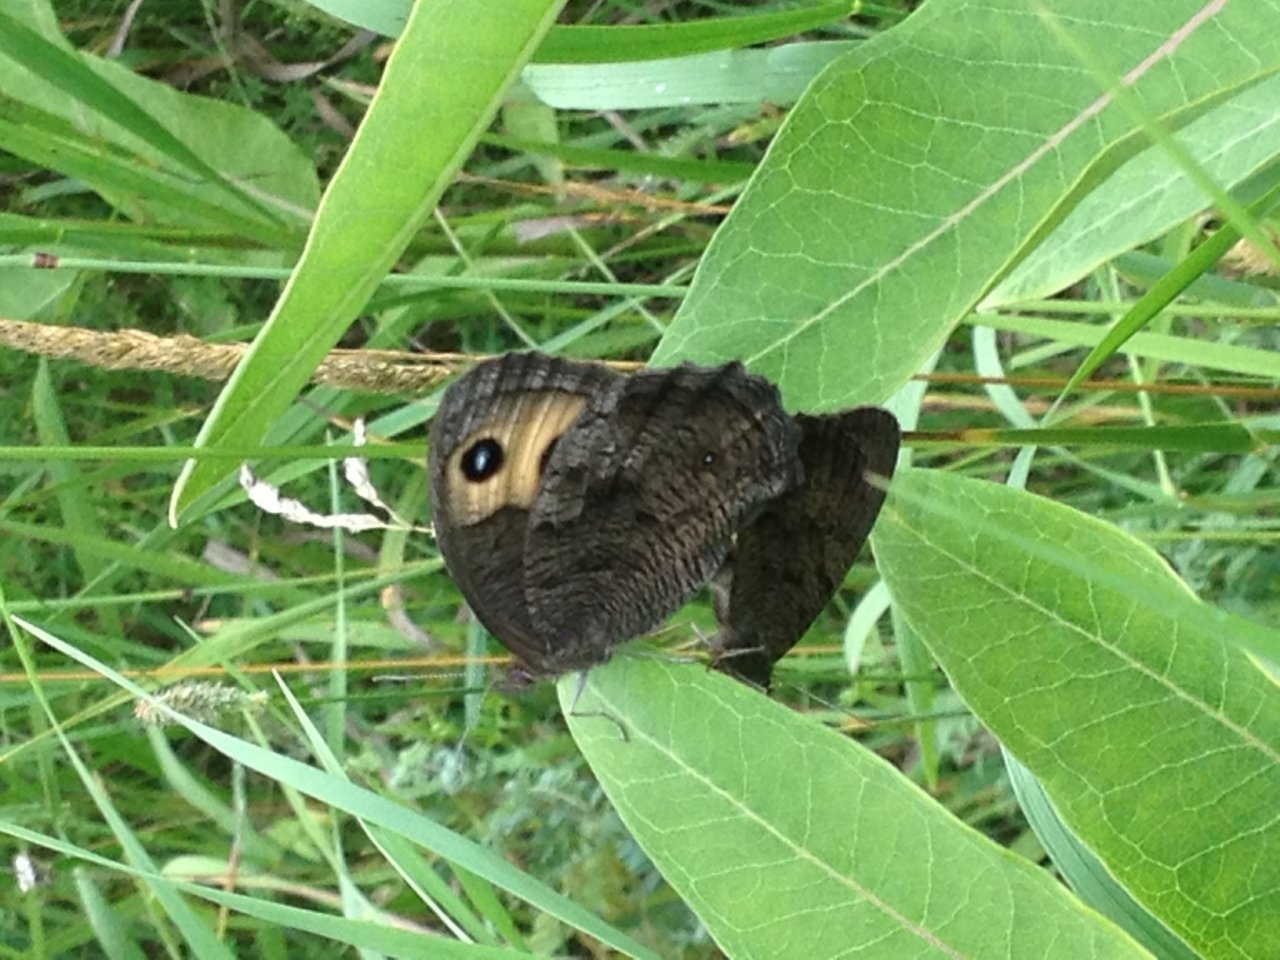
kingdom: Animalia
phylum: Arthropoda
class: Insecta
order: Lepidoptera
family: Nymphalidae
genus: Cercyonis
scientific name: Cercyonis pegala
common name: Common Wood-Nymph
